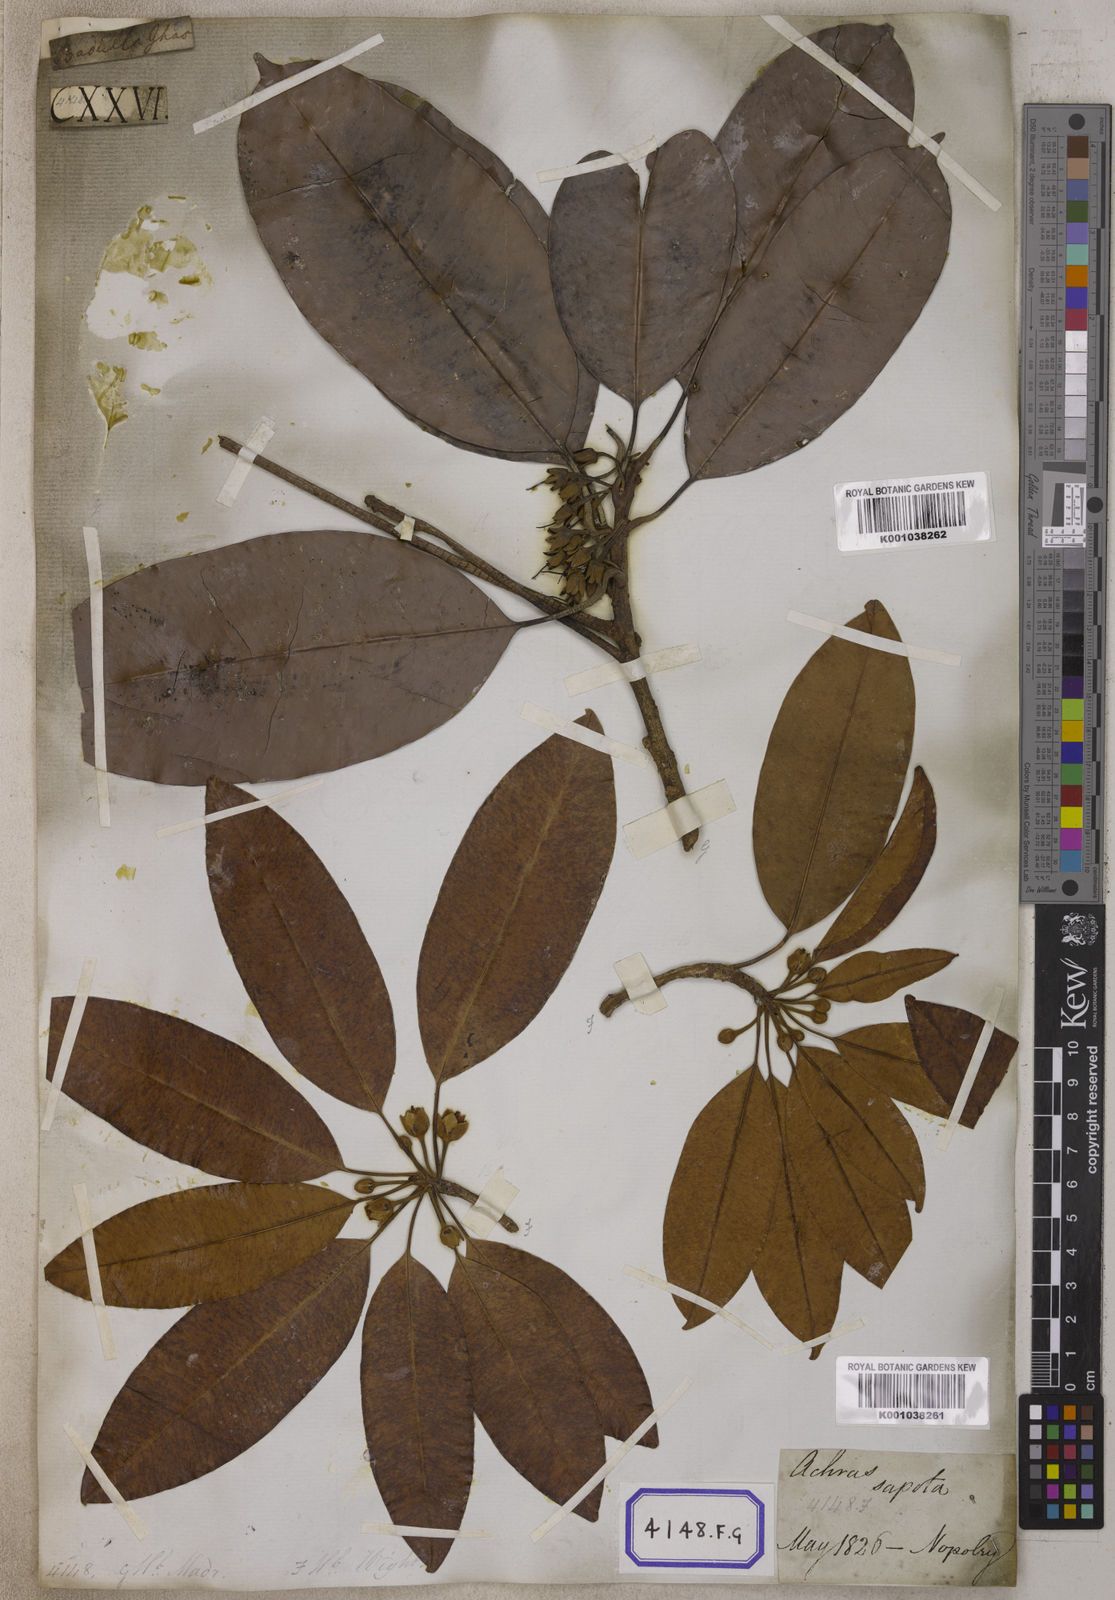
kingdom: Plantae
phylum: Tracheophyta
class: Magnoliopsida
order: Ericales
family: Sapotaceae
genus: Mimusops
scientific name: Mimusops
